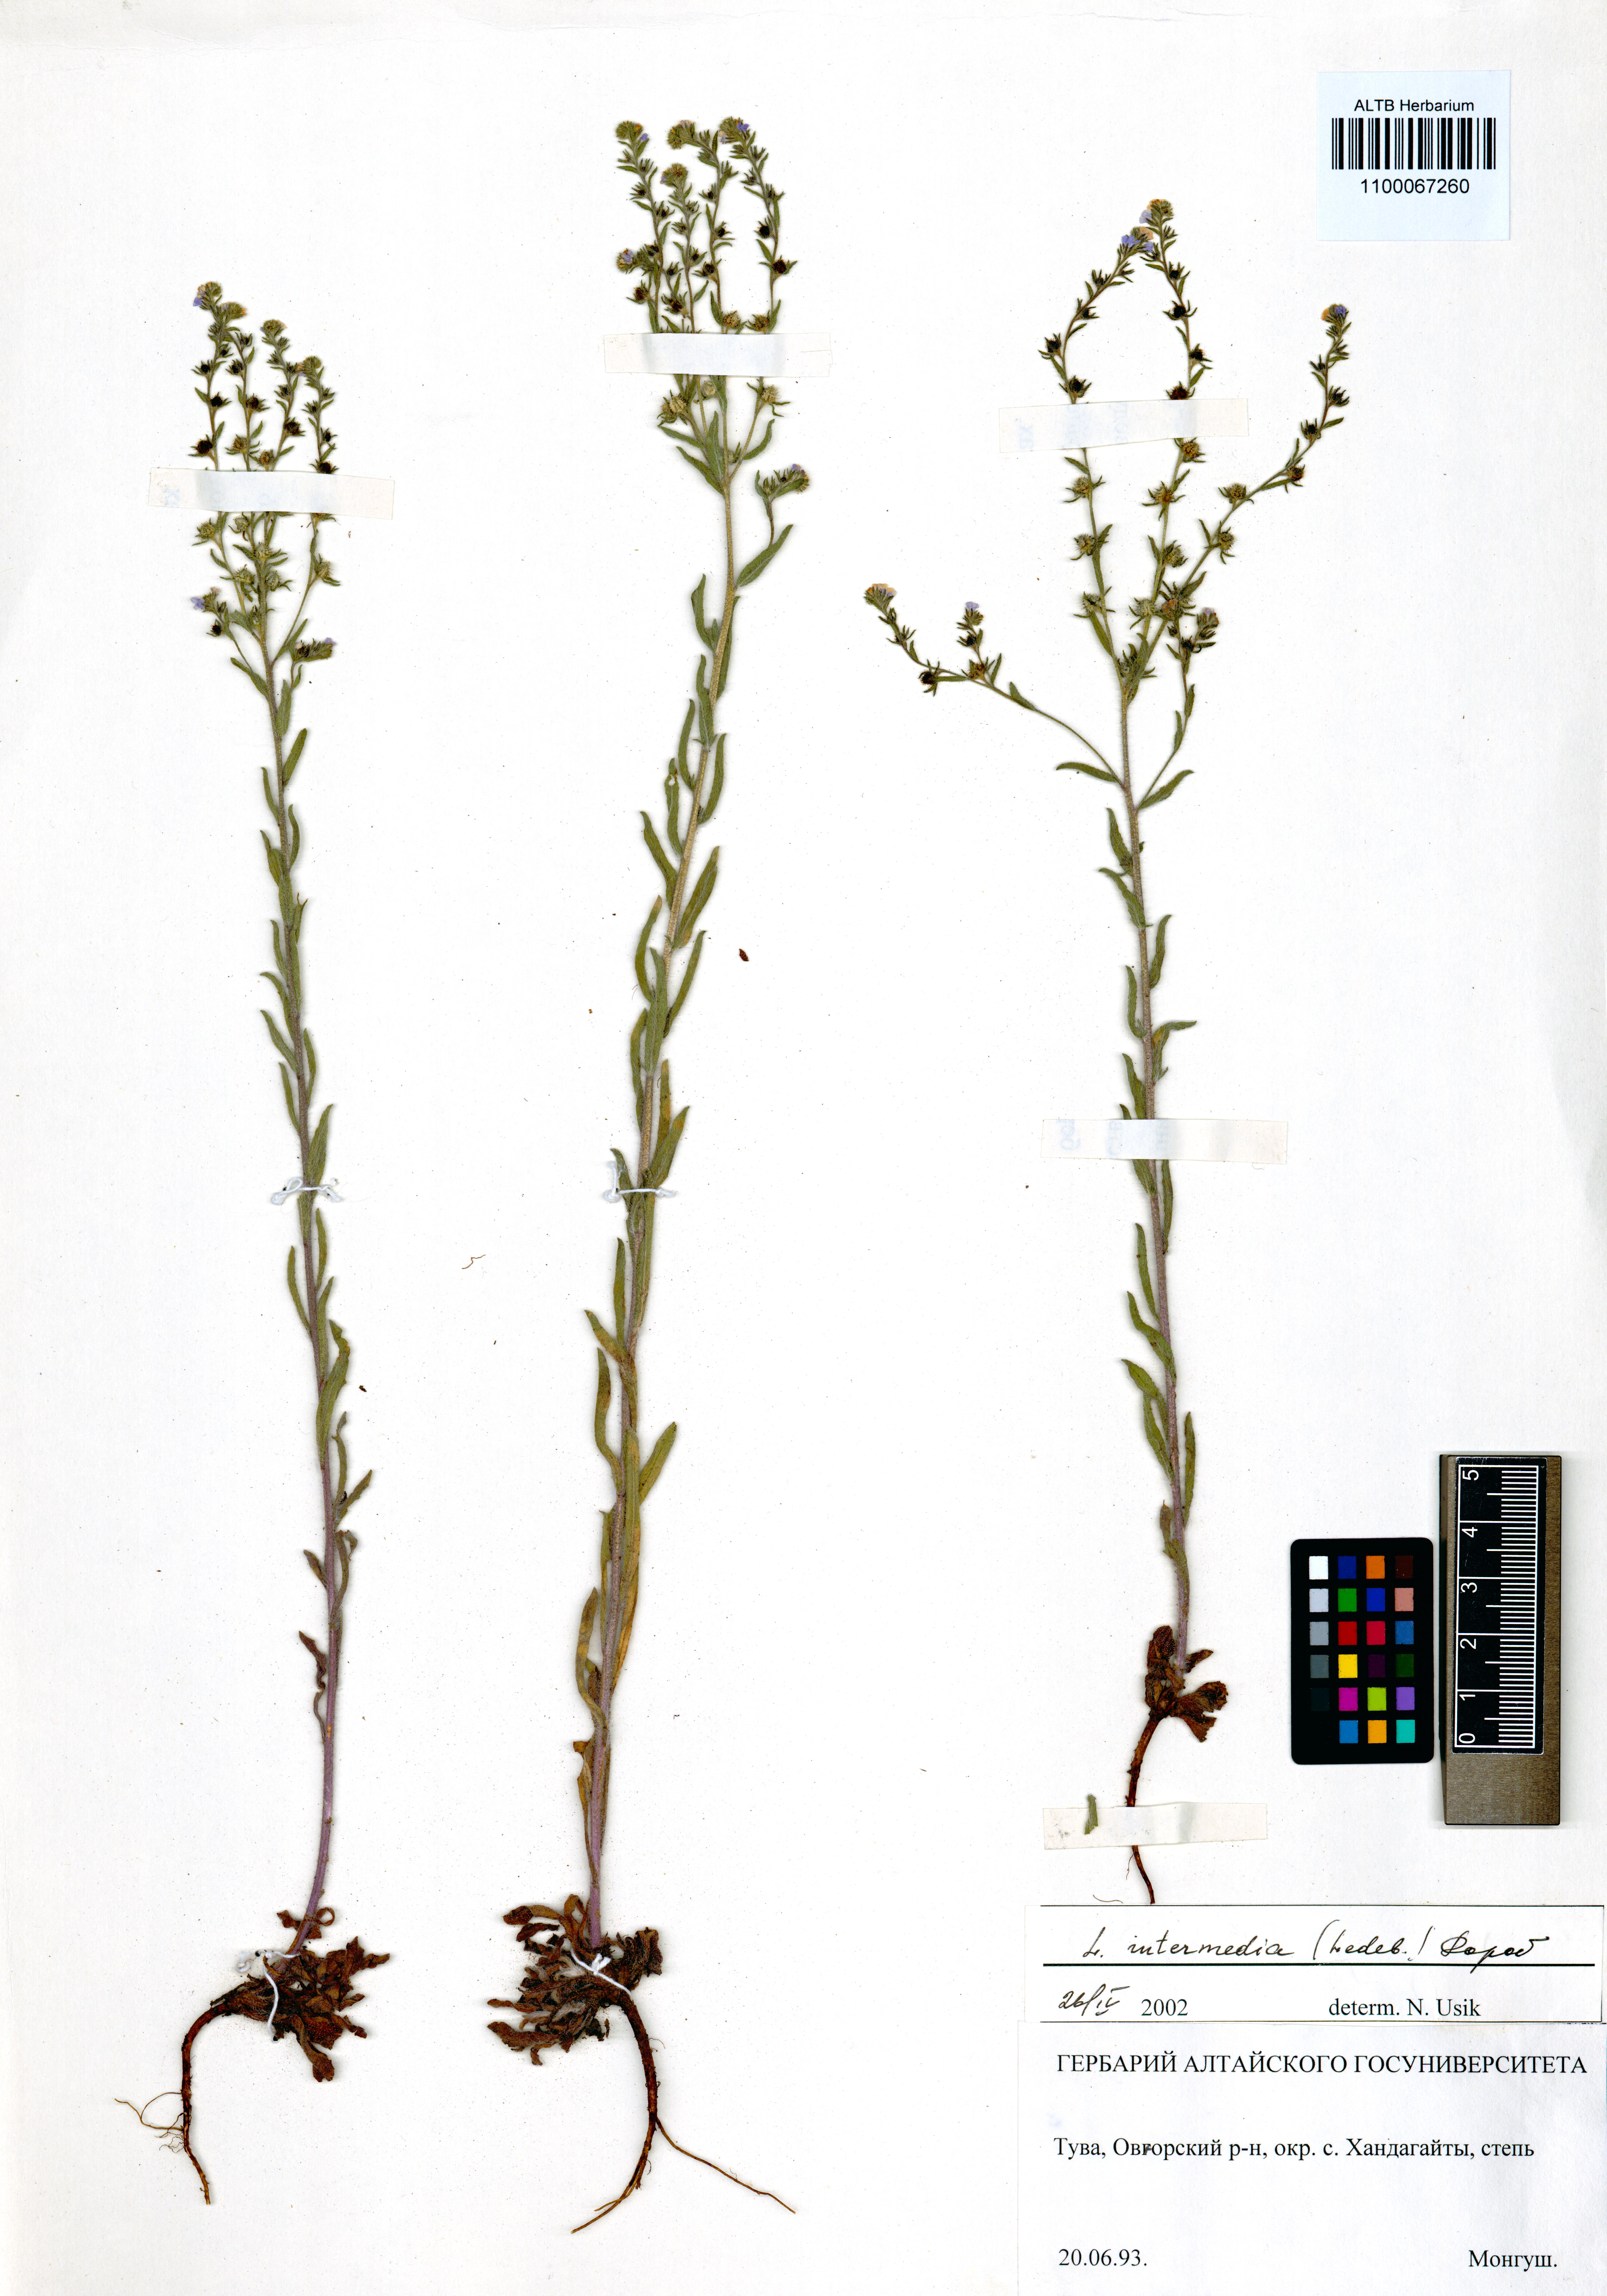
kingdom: Plantae
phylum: Tracheophyta
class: Magnoliopsida
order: Boraginales
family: Boraginaceae
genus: Lappula
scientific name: Lappula intermedia
